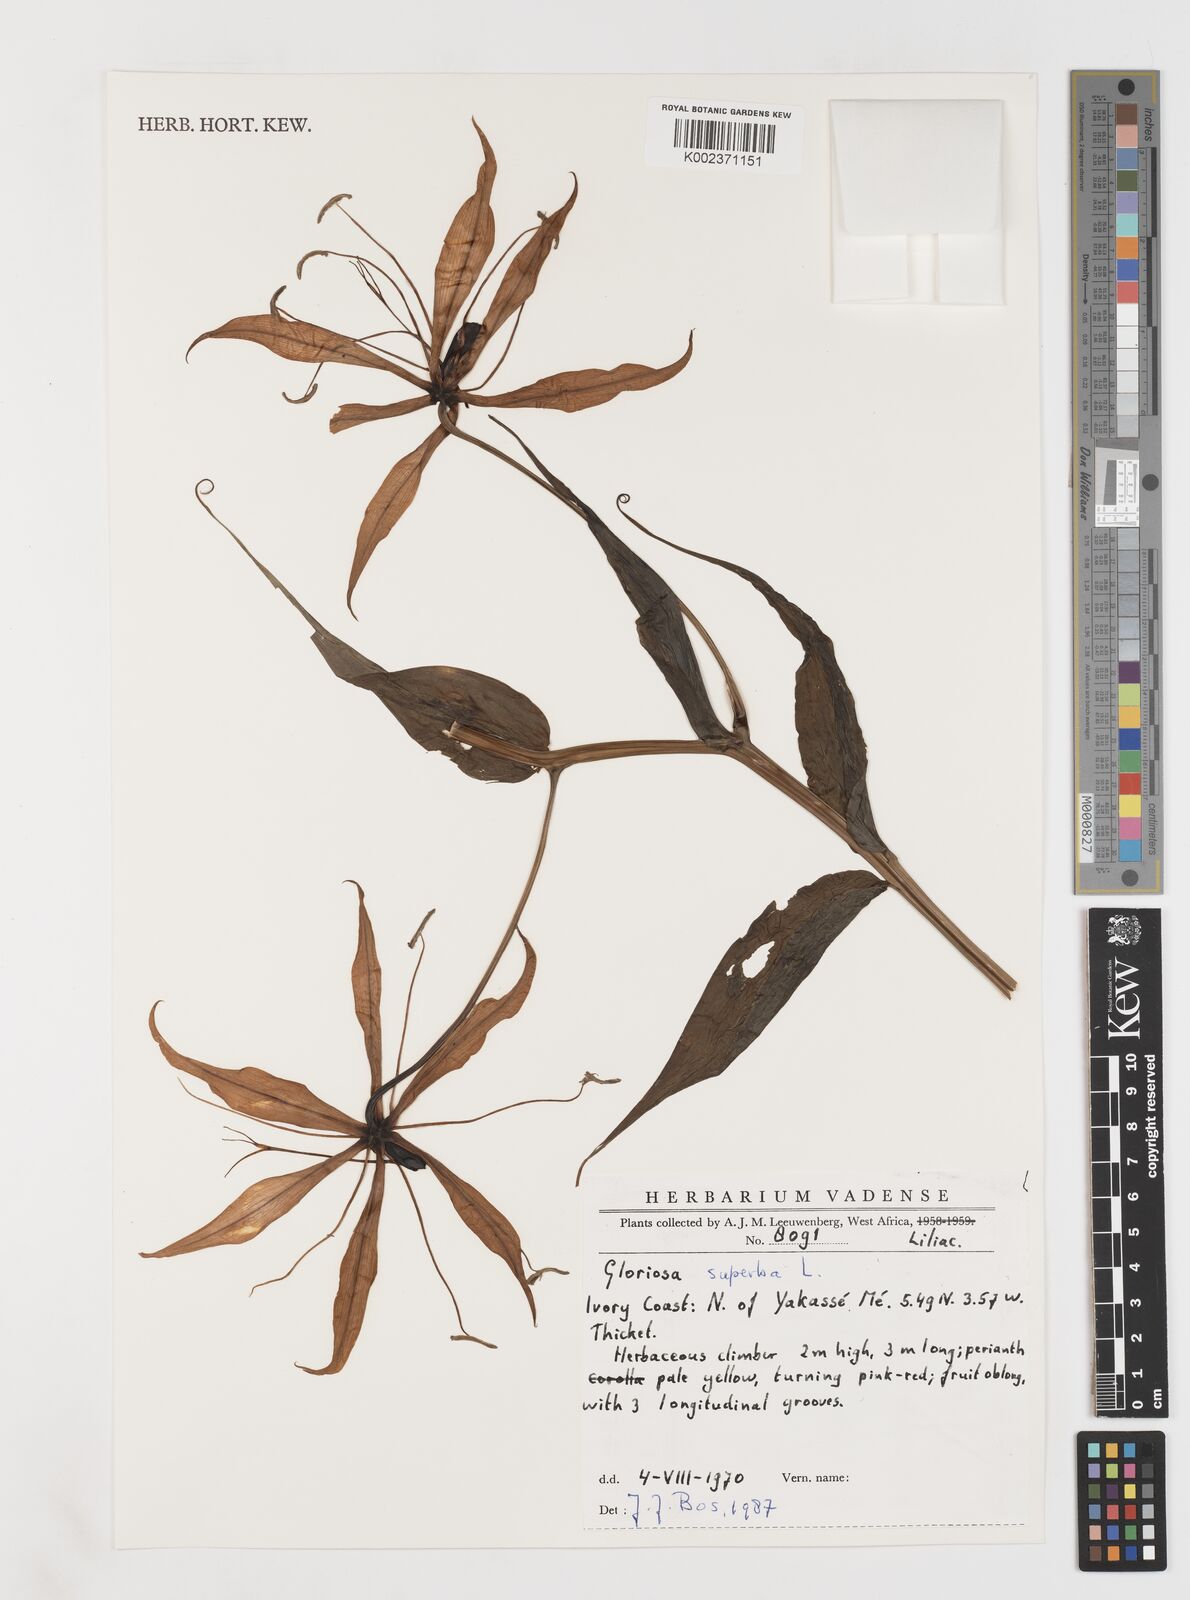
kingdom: Plantae
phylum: Tracheophyta
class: Liliopsida
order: Liliales
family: Colchicaceae
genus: Gloriosa
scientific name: Gloriosa simplex
